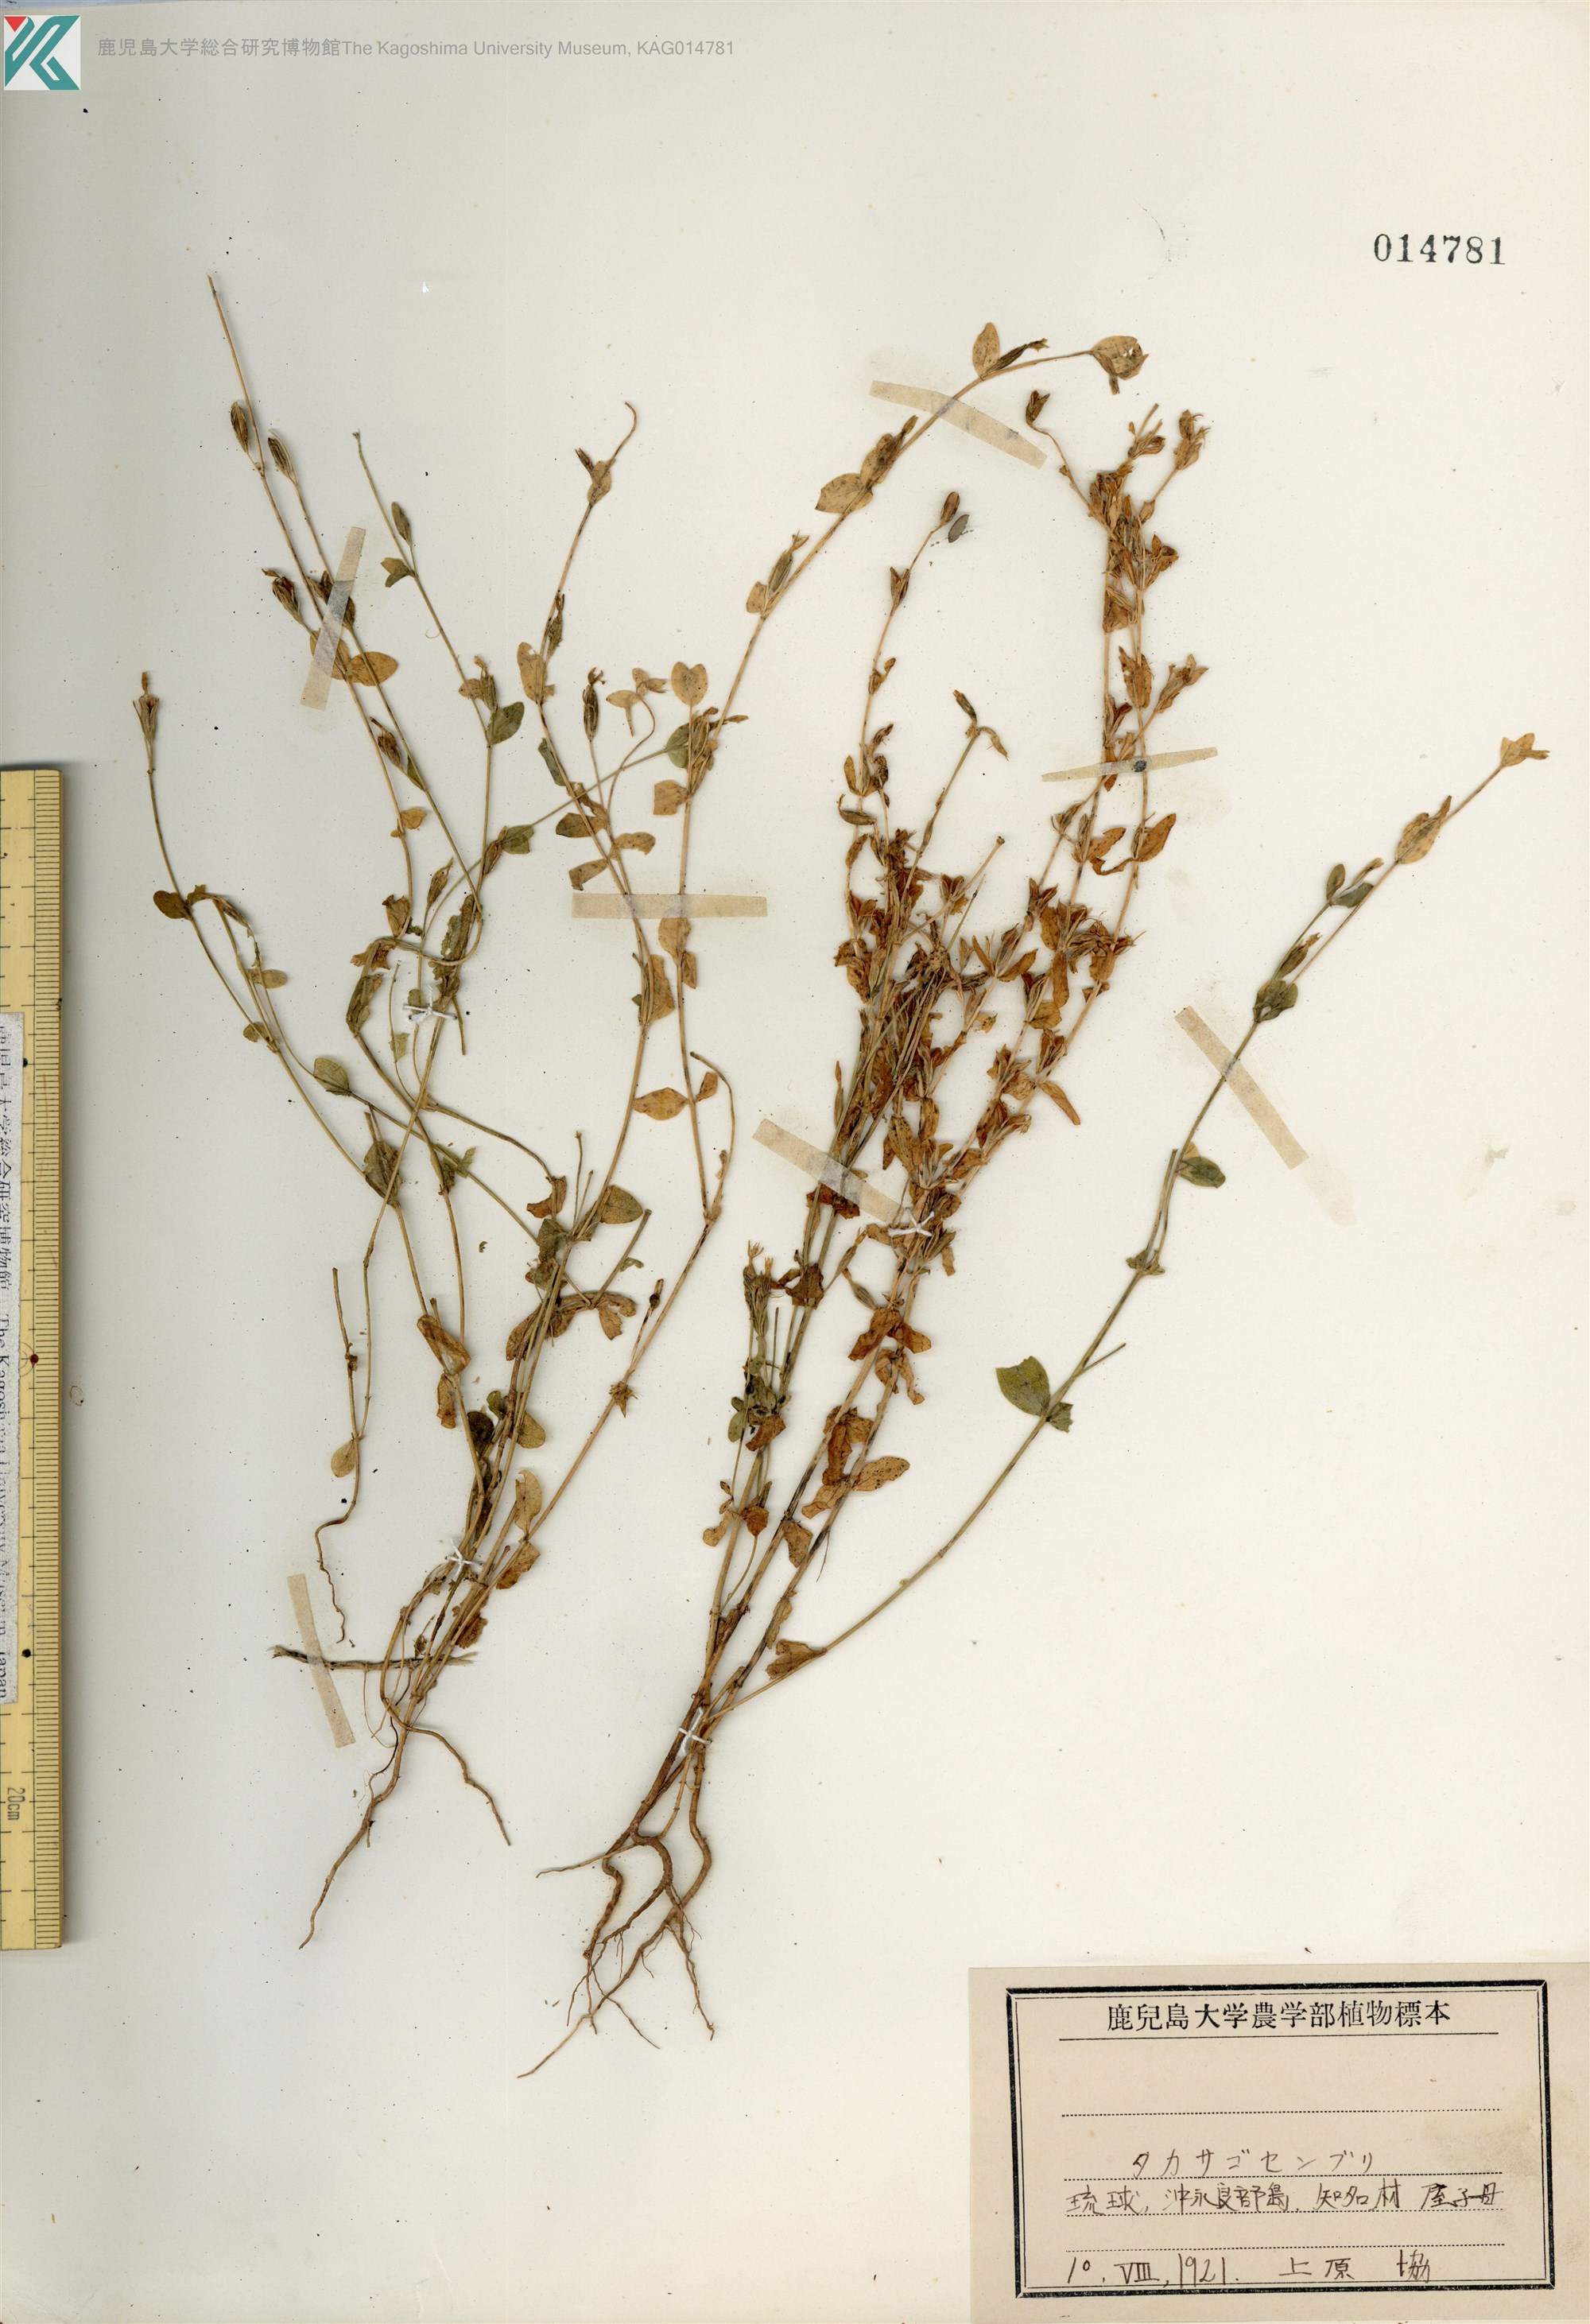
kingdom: Plantae
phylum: Tracheophyta
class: Magnoliopsida
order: Gentianales
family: Gentianaceae
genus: Schenkia
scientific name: Schenkia japonica
